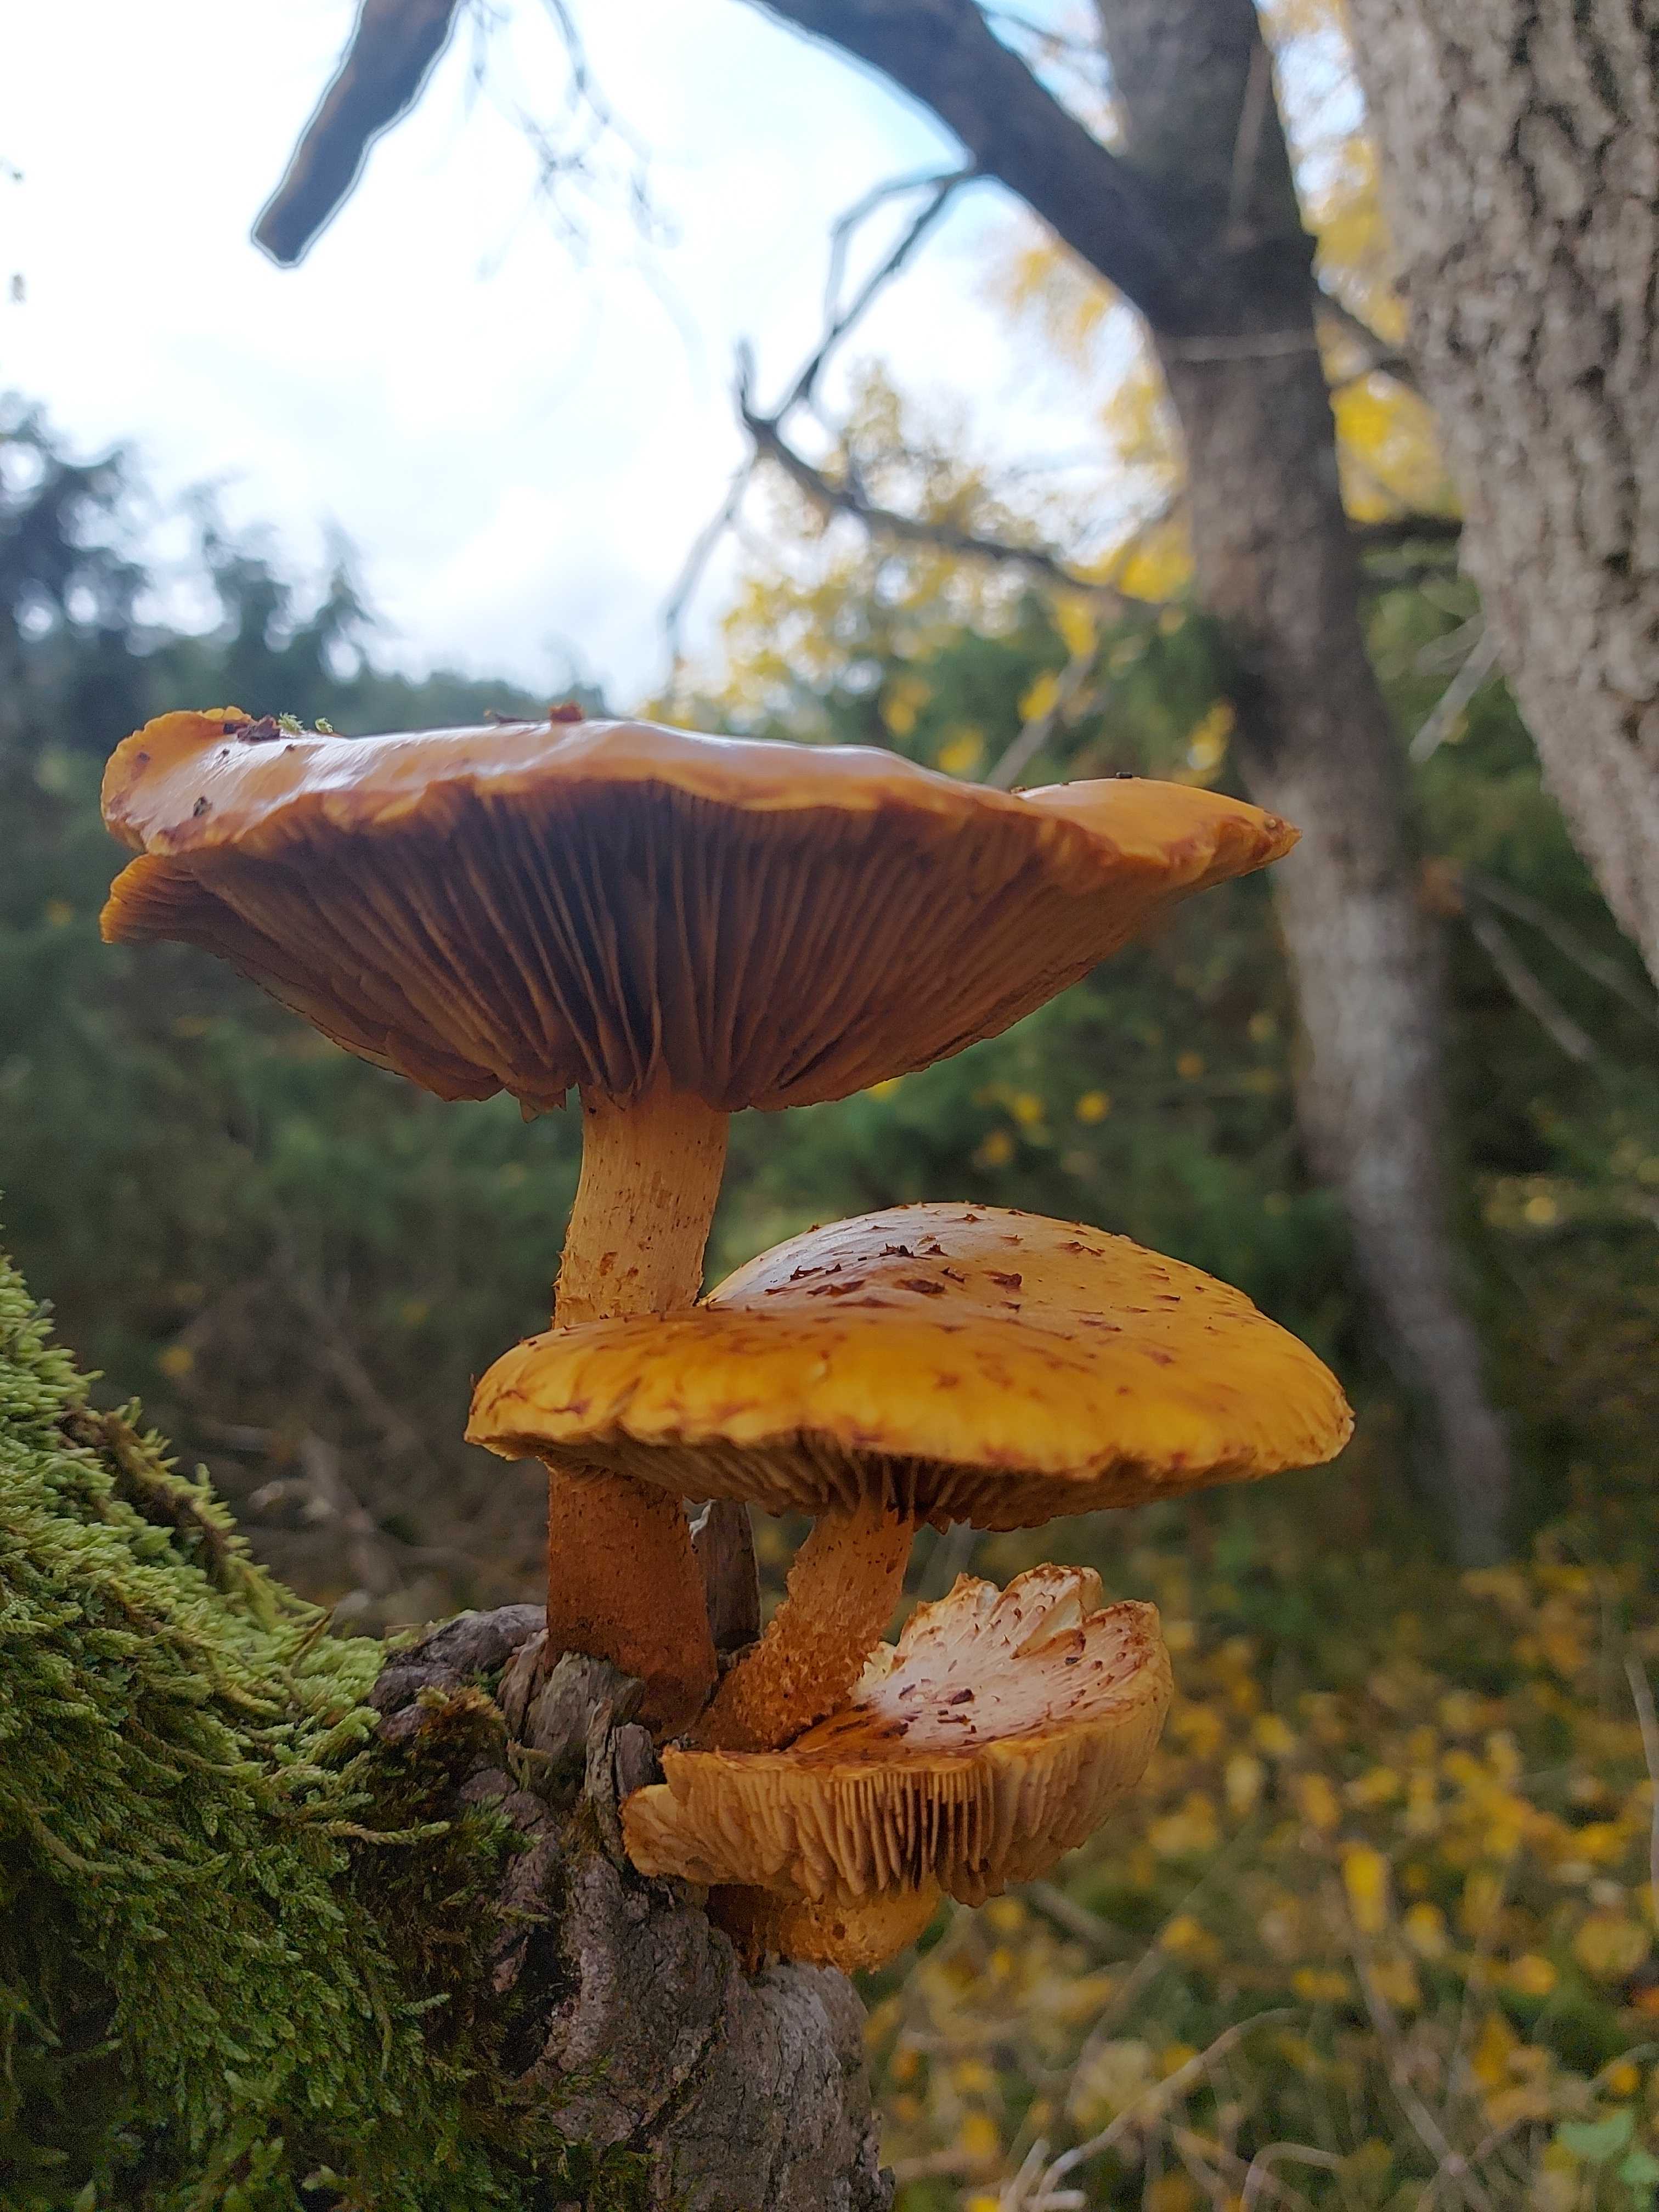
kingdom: Fungi
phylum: Basidiomycota
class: Agaricomycetes
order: Agaricales
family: Strophariaceae
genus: Pholiota
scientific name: Pholiota squarrosa
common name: krumskællet skælhat
